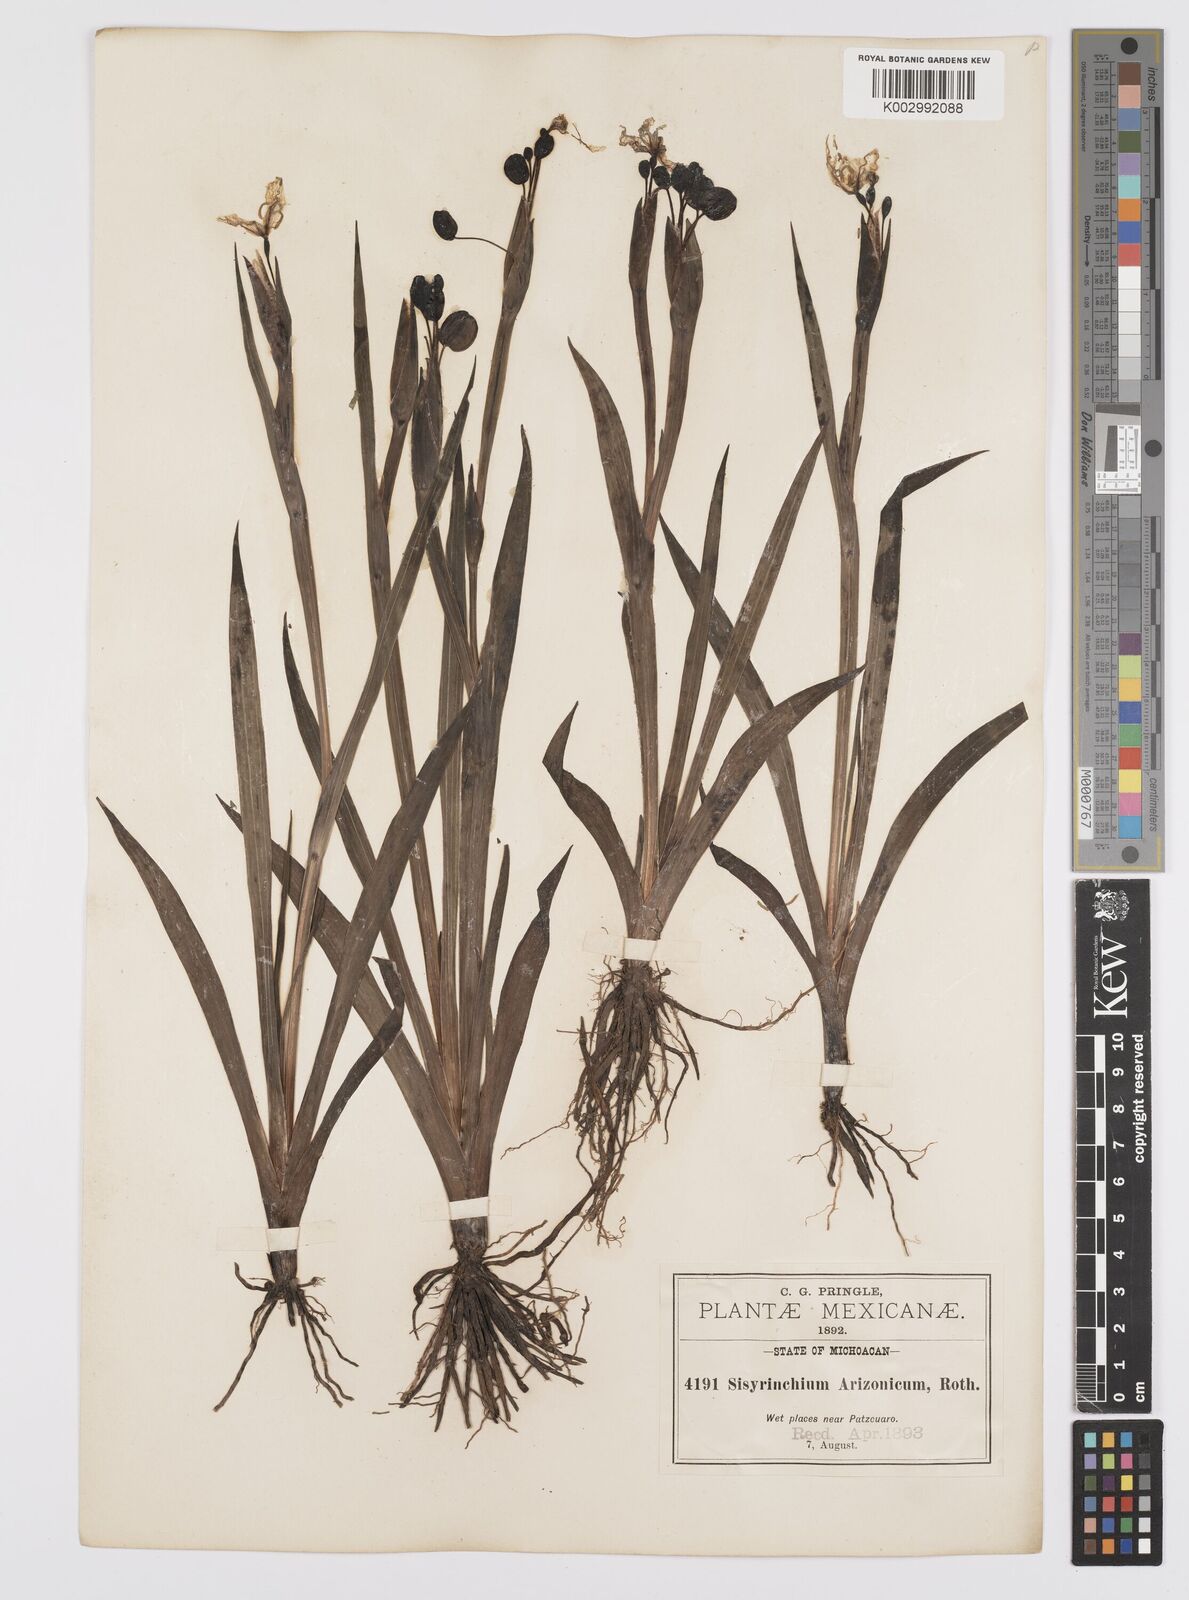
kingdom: Plantae
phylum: Tracheophyta
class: Liliopsida
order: Asparagales
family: Iridaceae
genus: Sisyrinchium
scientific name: Sisyrinchium arizonicum
